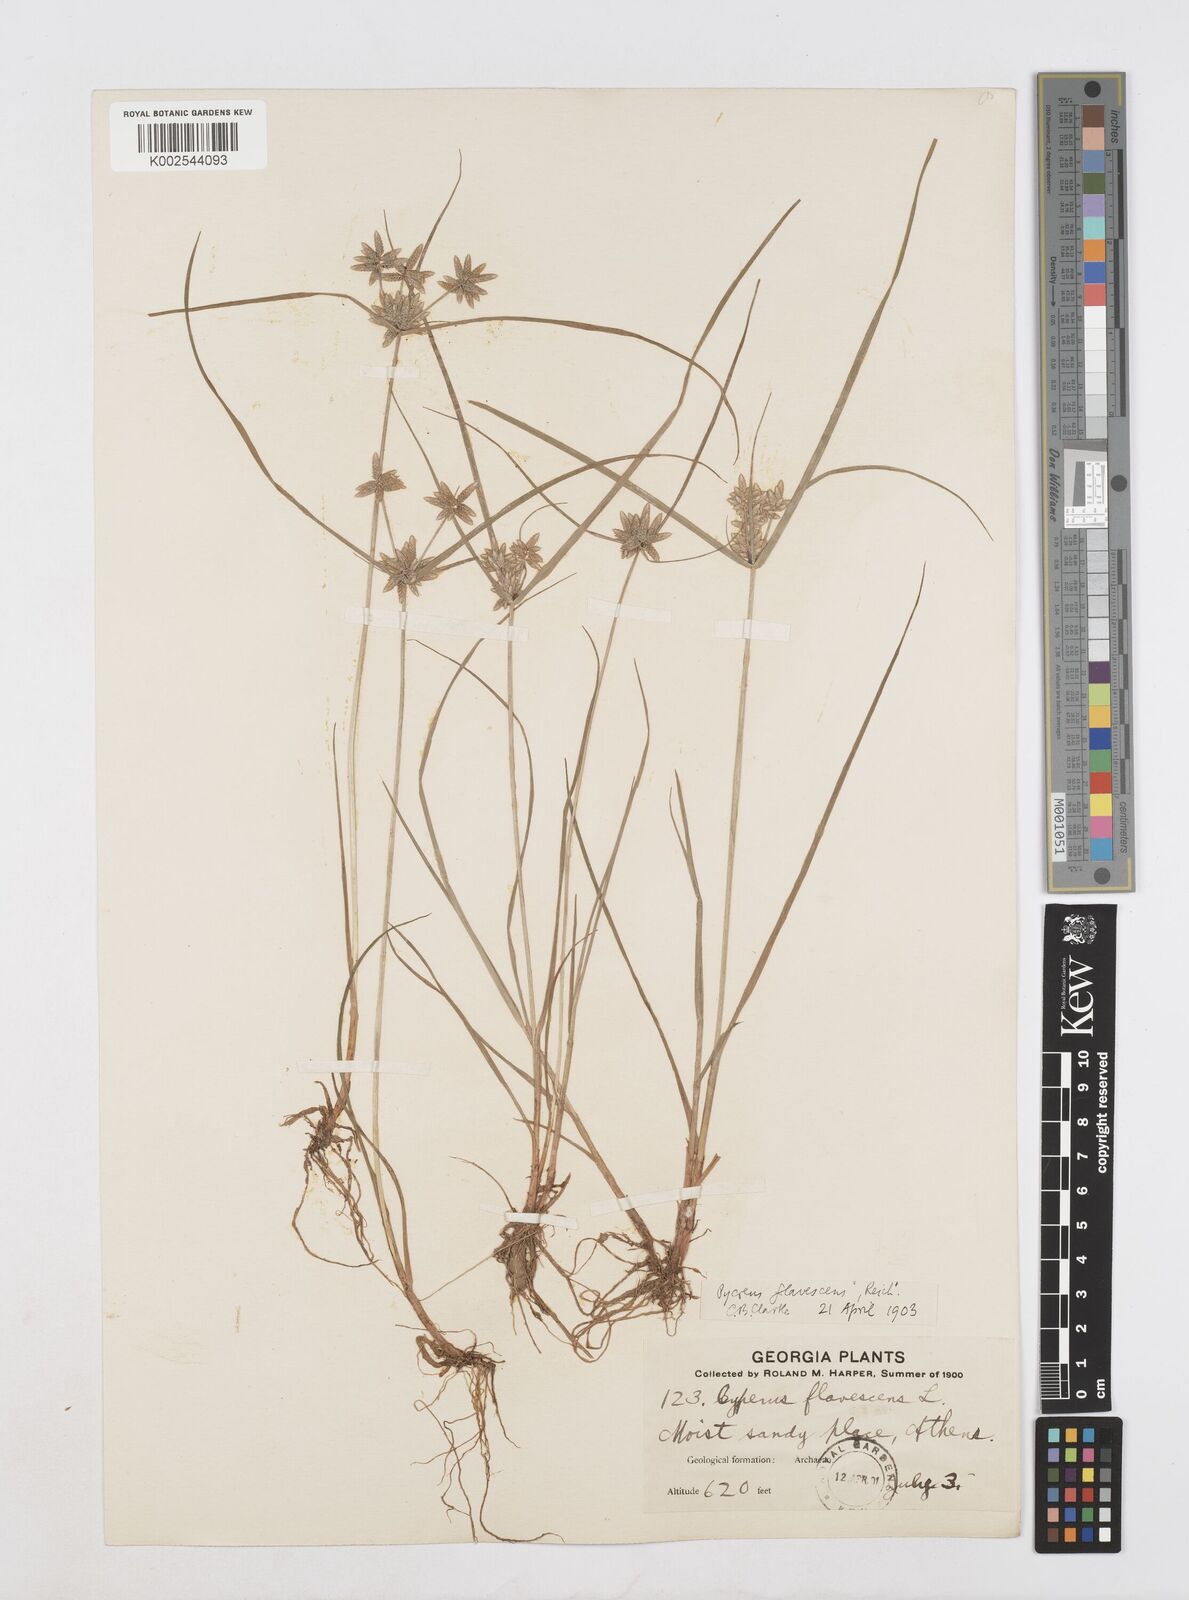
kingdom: Plantae
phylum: Tracheophyta
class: Liliopsida
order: Poales
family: Cyperaceae
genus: Cyperus
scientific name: Cyperus flavescens
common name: Yellow galingale
